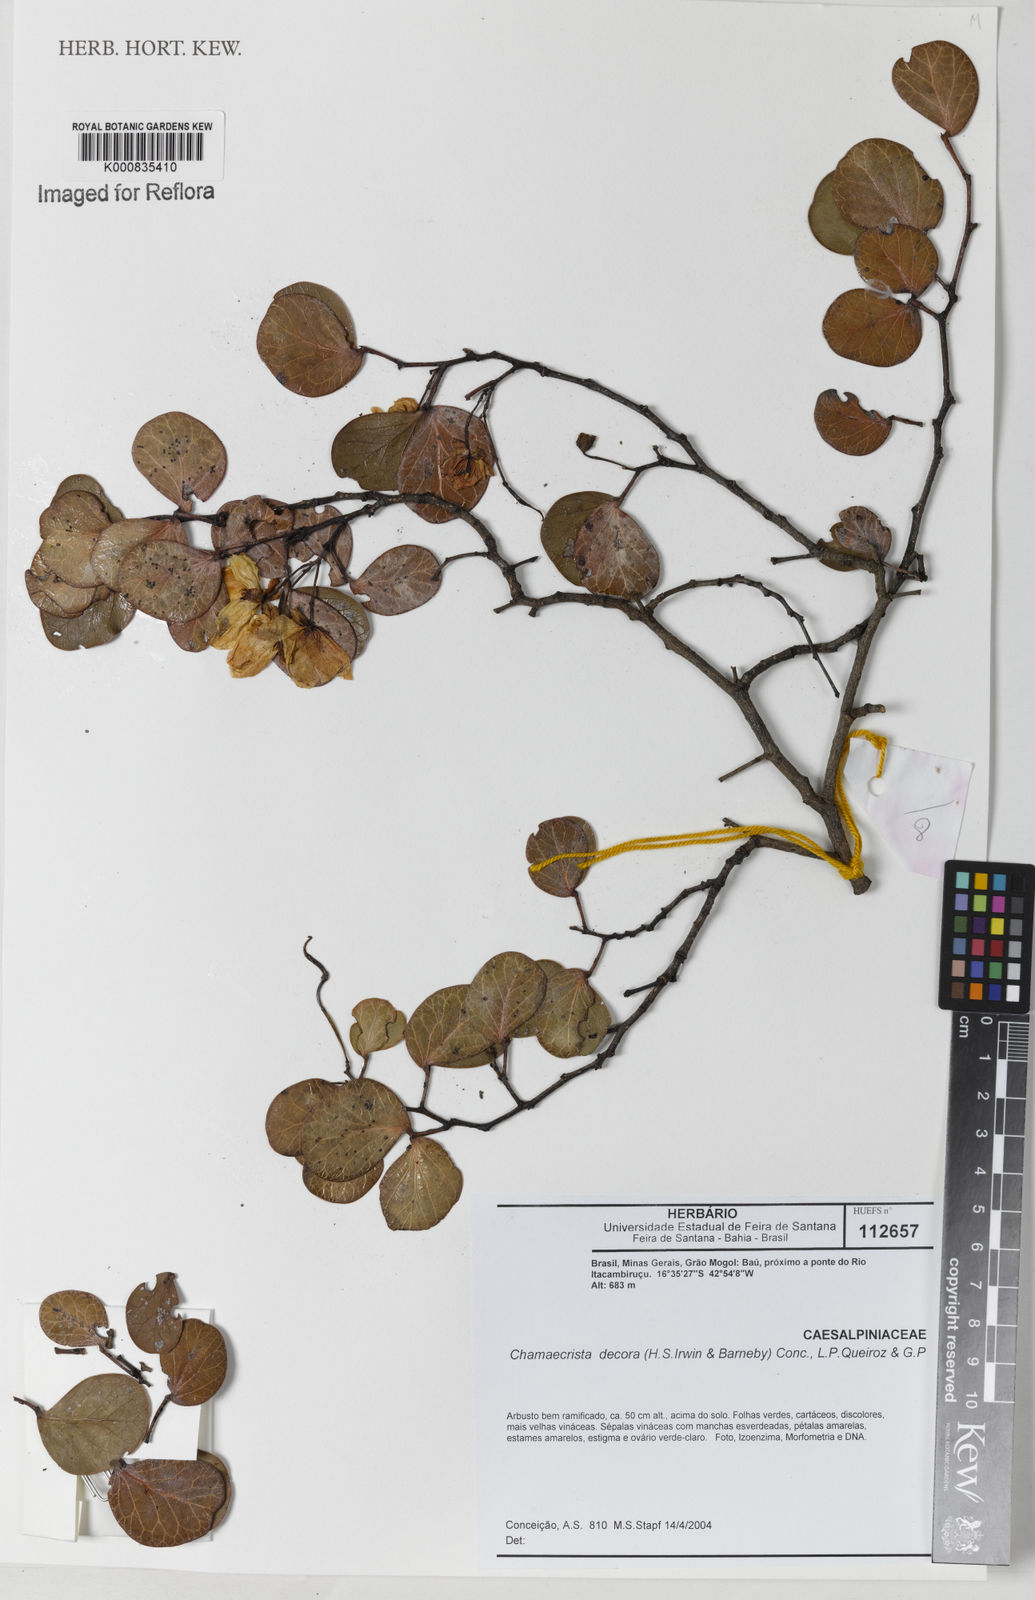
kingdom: Plantae
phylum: Tracheophyta
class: Magnoliopsida
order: Fabales
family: Fabaceae
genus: Chamaecrista
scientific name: Chamaecrista decora
